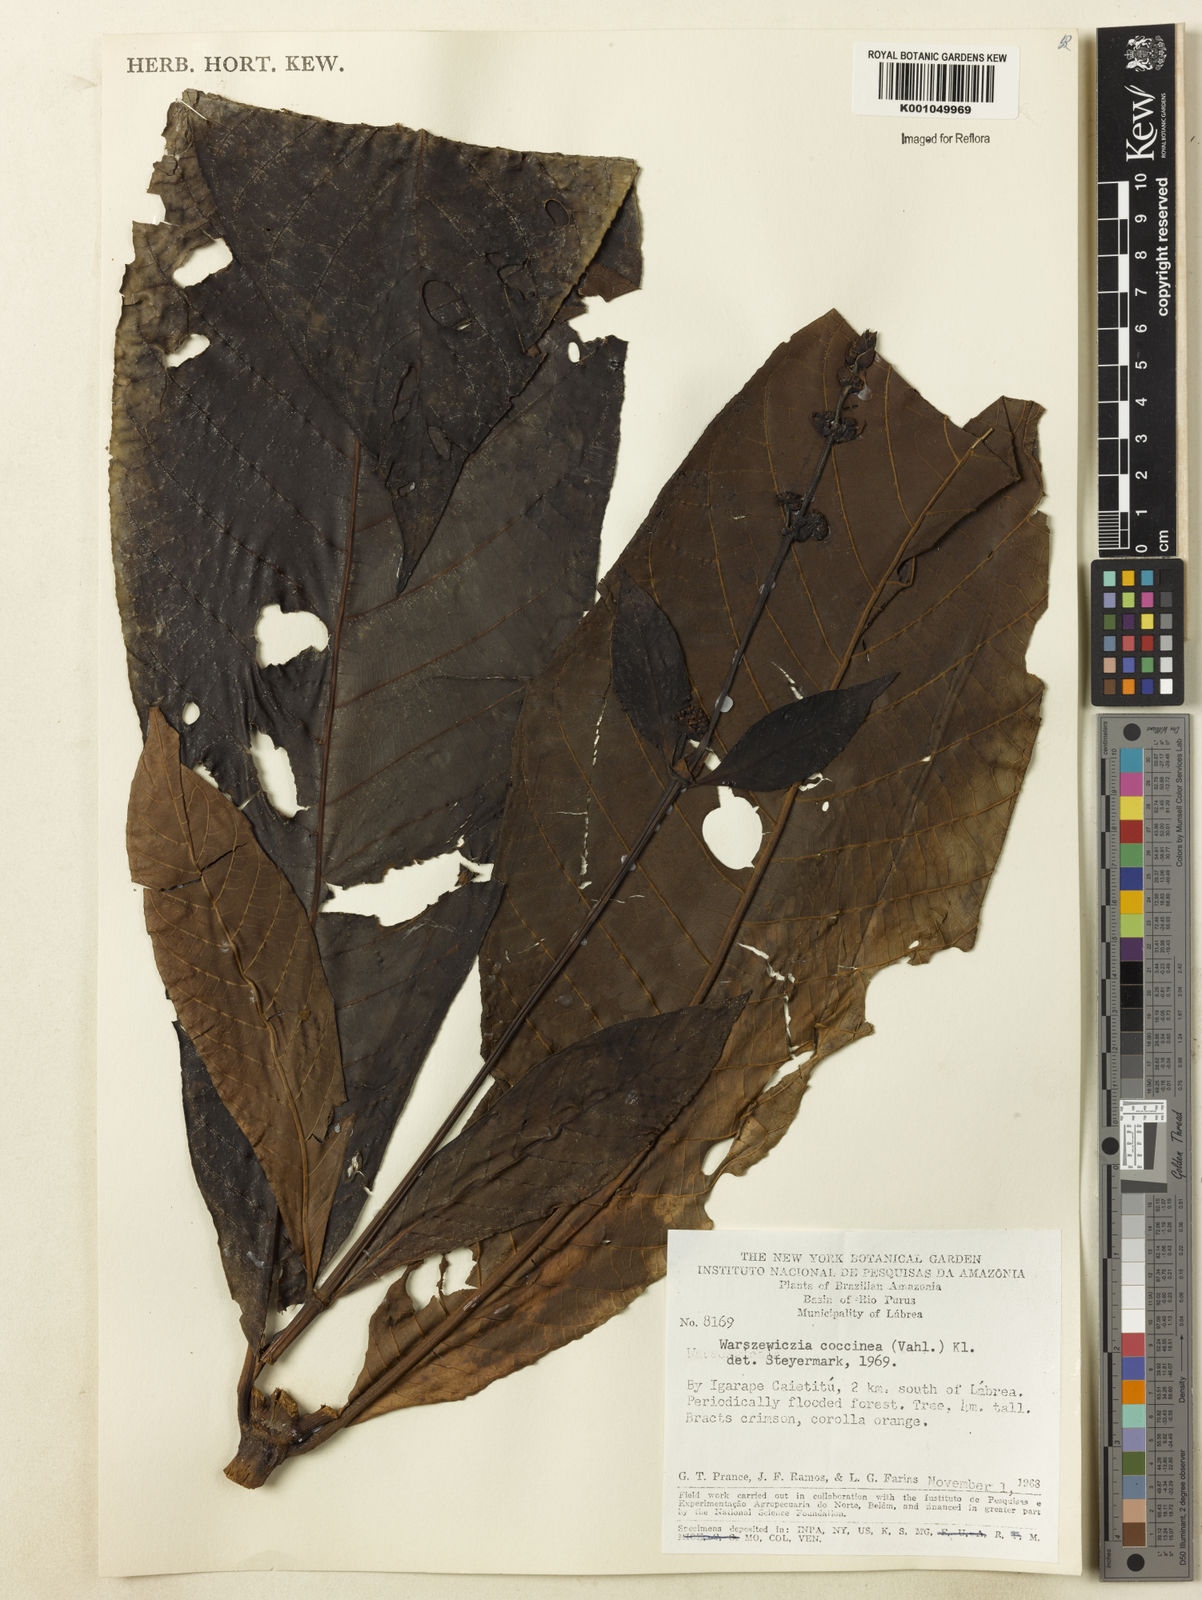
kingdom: Plantae
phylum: Tracheophyta
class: Magnoliopsida
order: Gentianales
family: Rubiaceae
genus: Warszewiczia
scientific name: Warszewiczia coccinea
